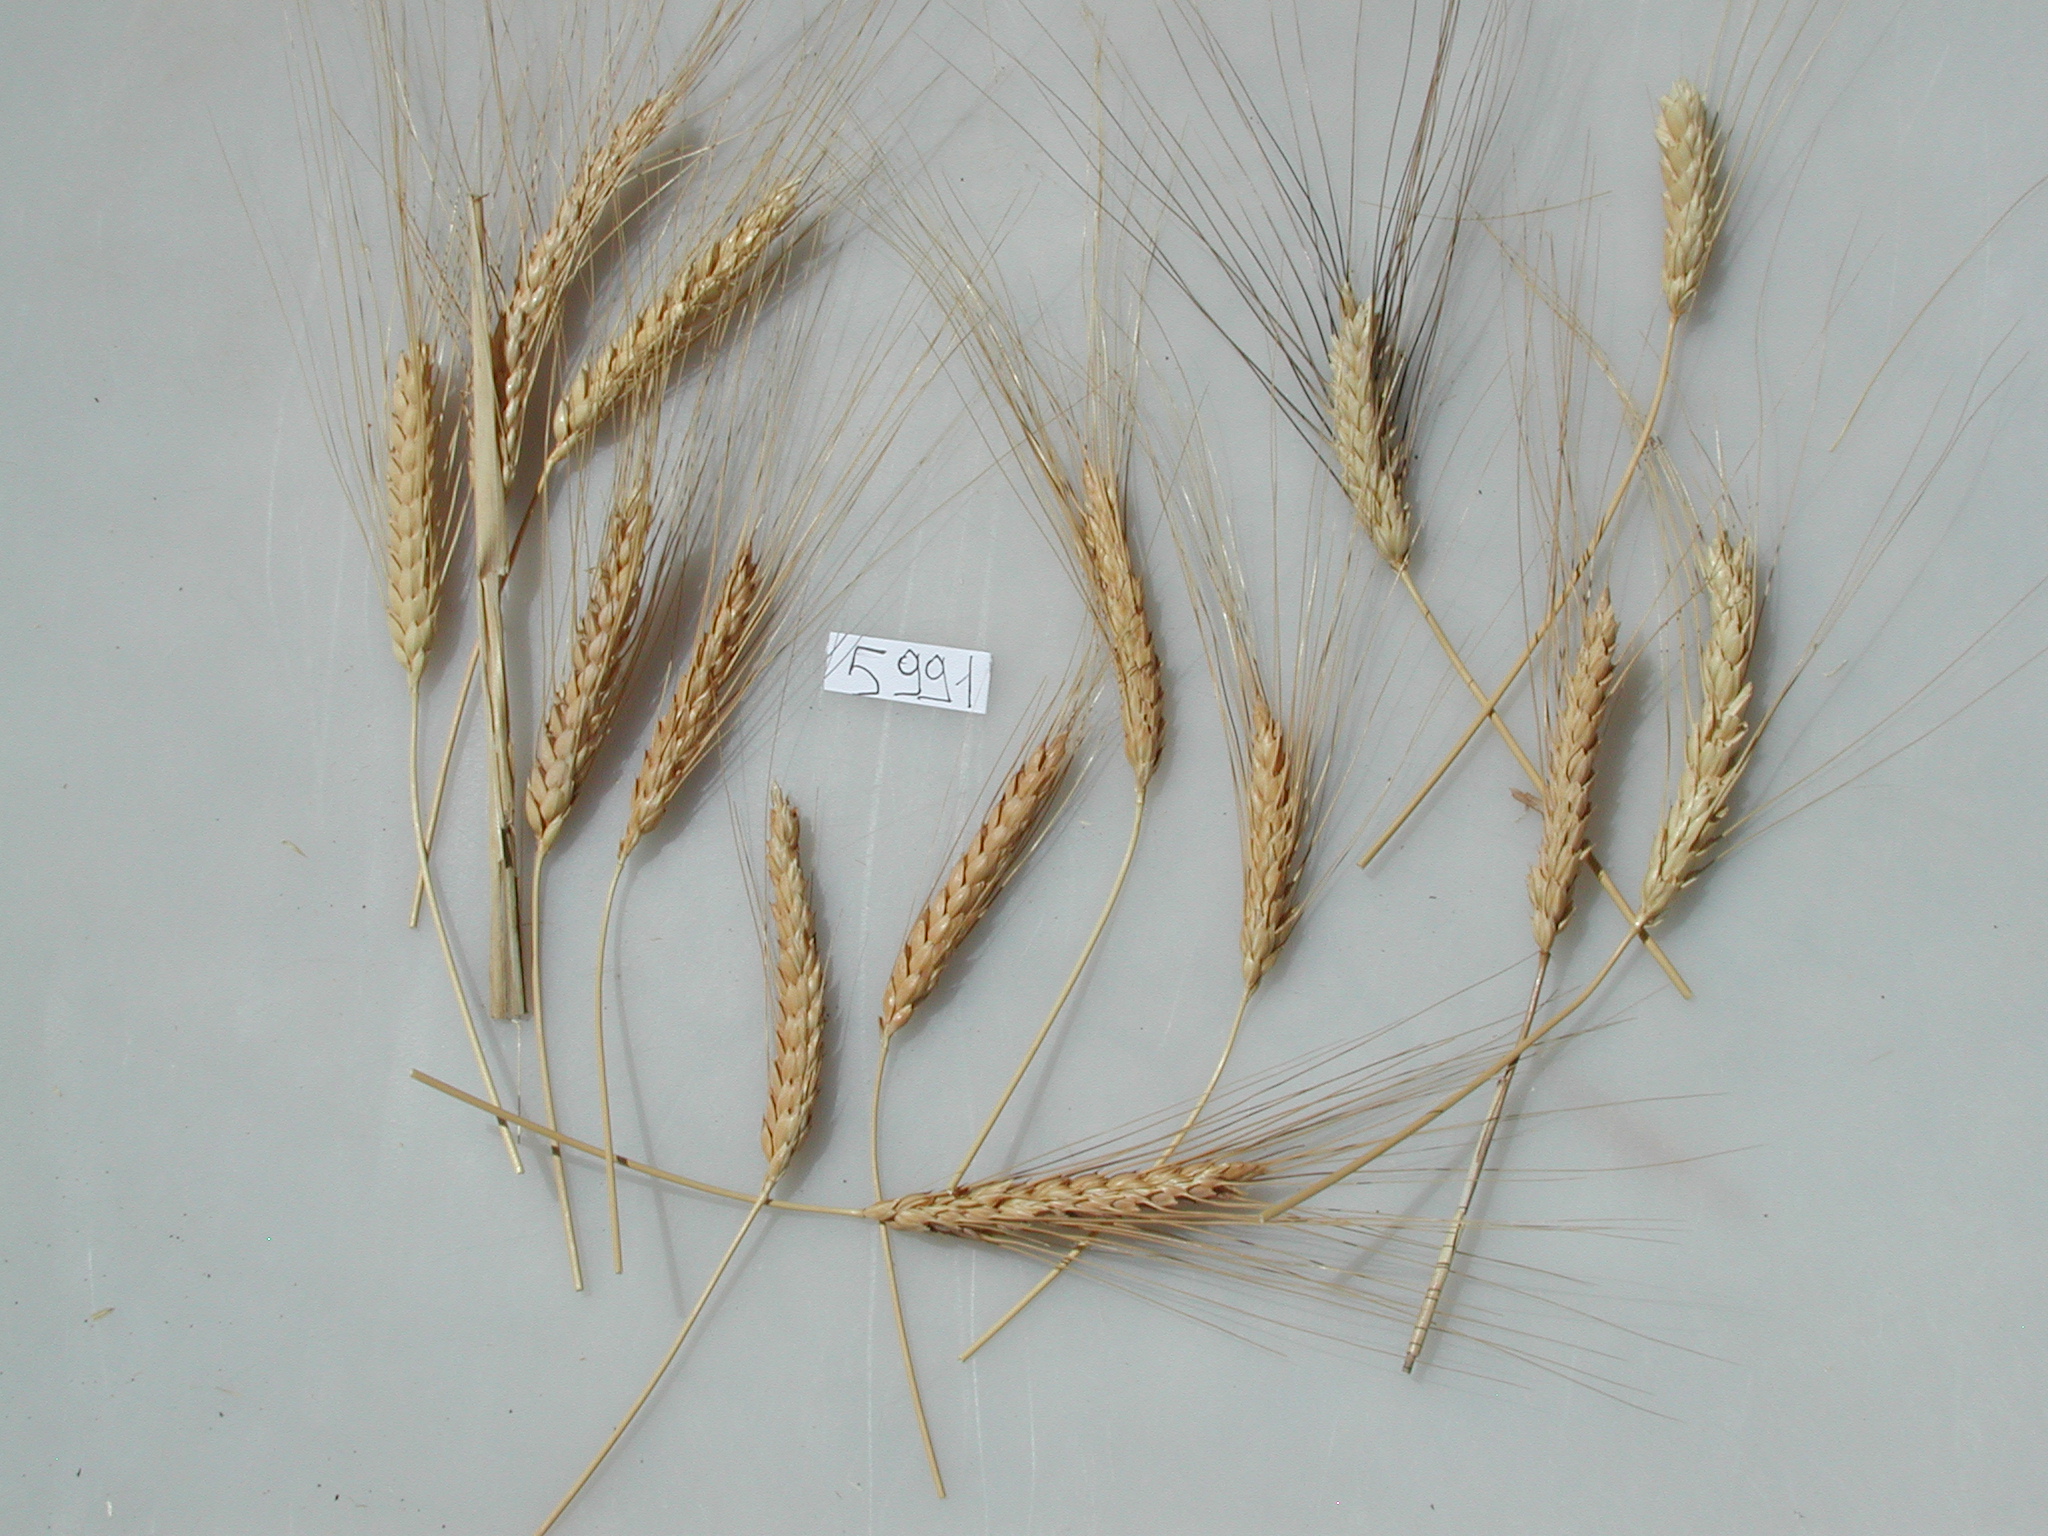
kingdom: Plantae
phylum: Tracheophyta
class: Liliopsida
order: Poales
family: Poaceae
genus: Triticum
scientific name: Triticum turgidum
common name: Wheat
